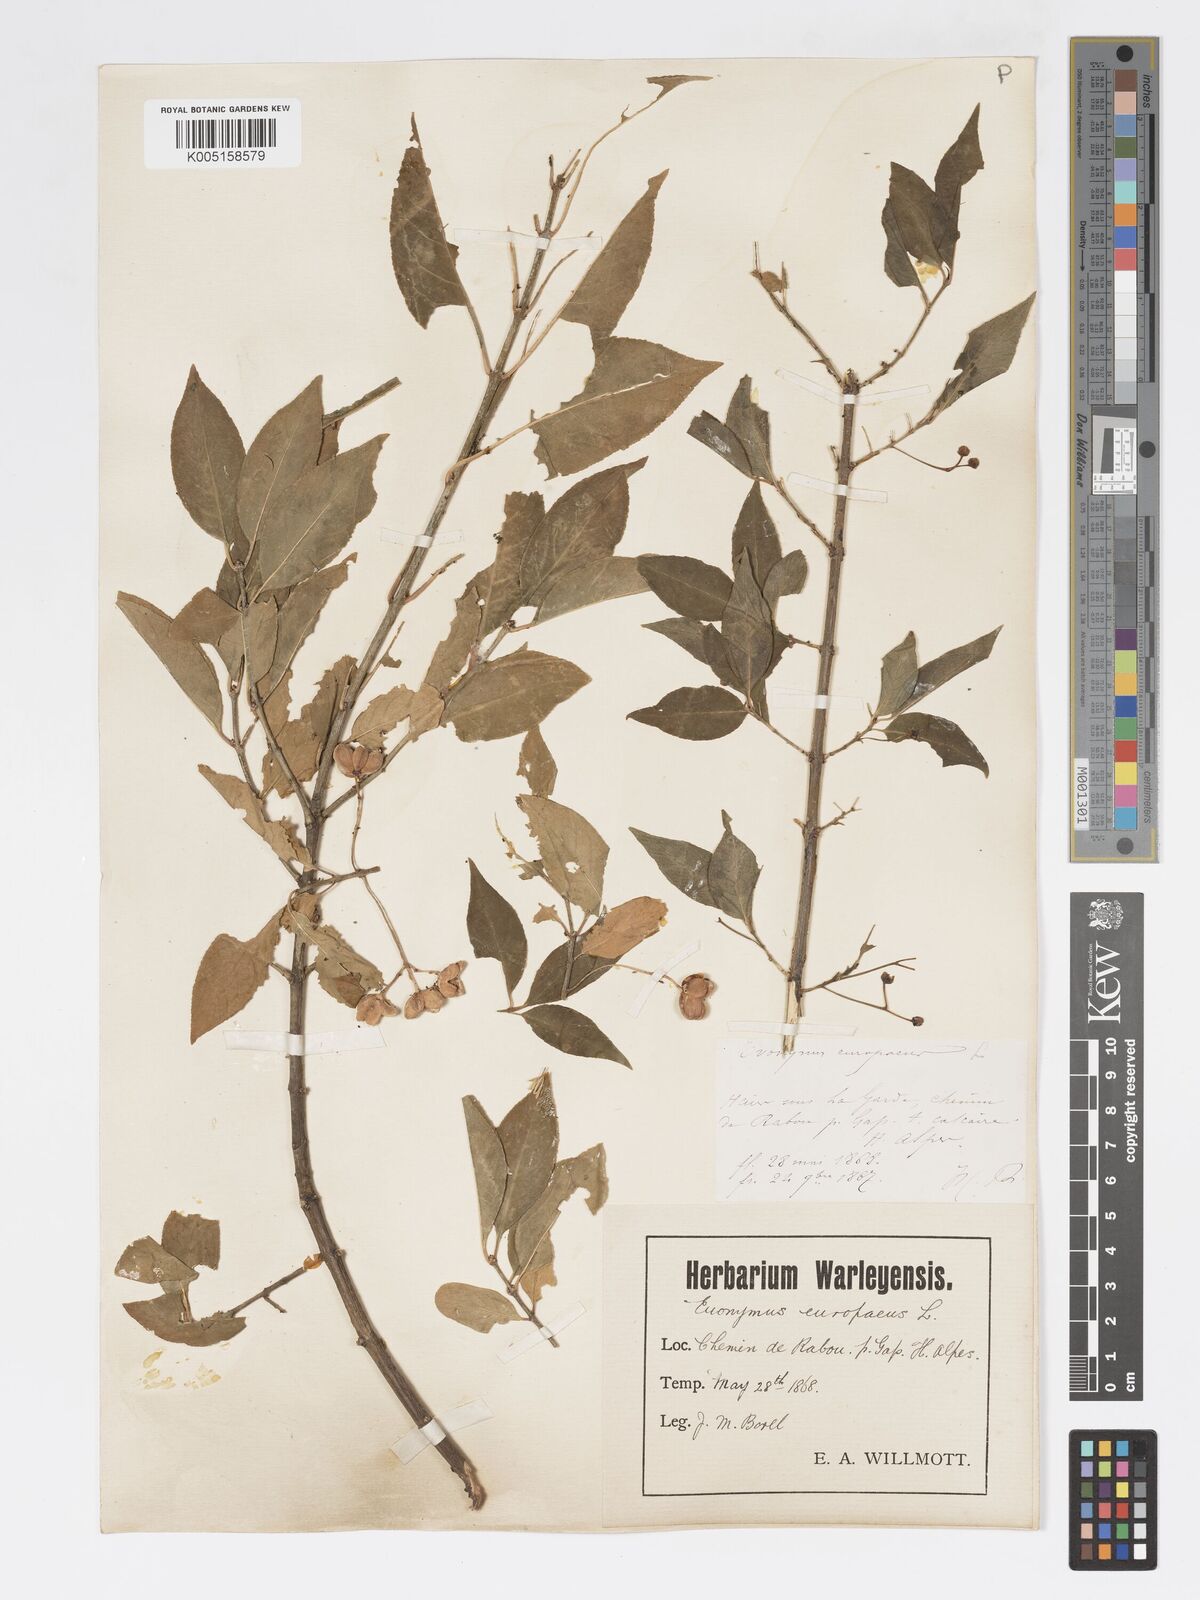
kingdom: Plantae
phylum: Tracheophyta
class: Magnoliopsida
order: Celastrales
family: Celastraceae
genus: Euonymus
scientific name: Euonymus europaeus
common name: Spindle
